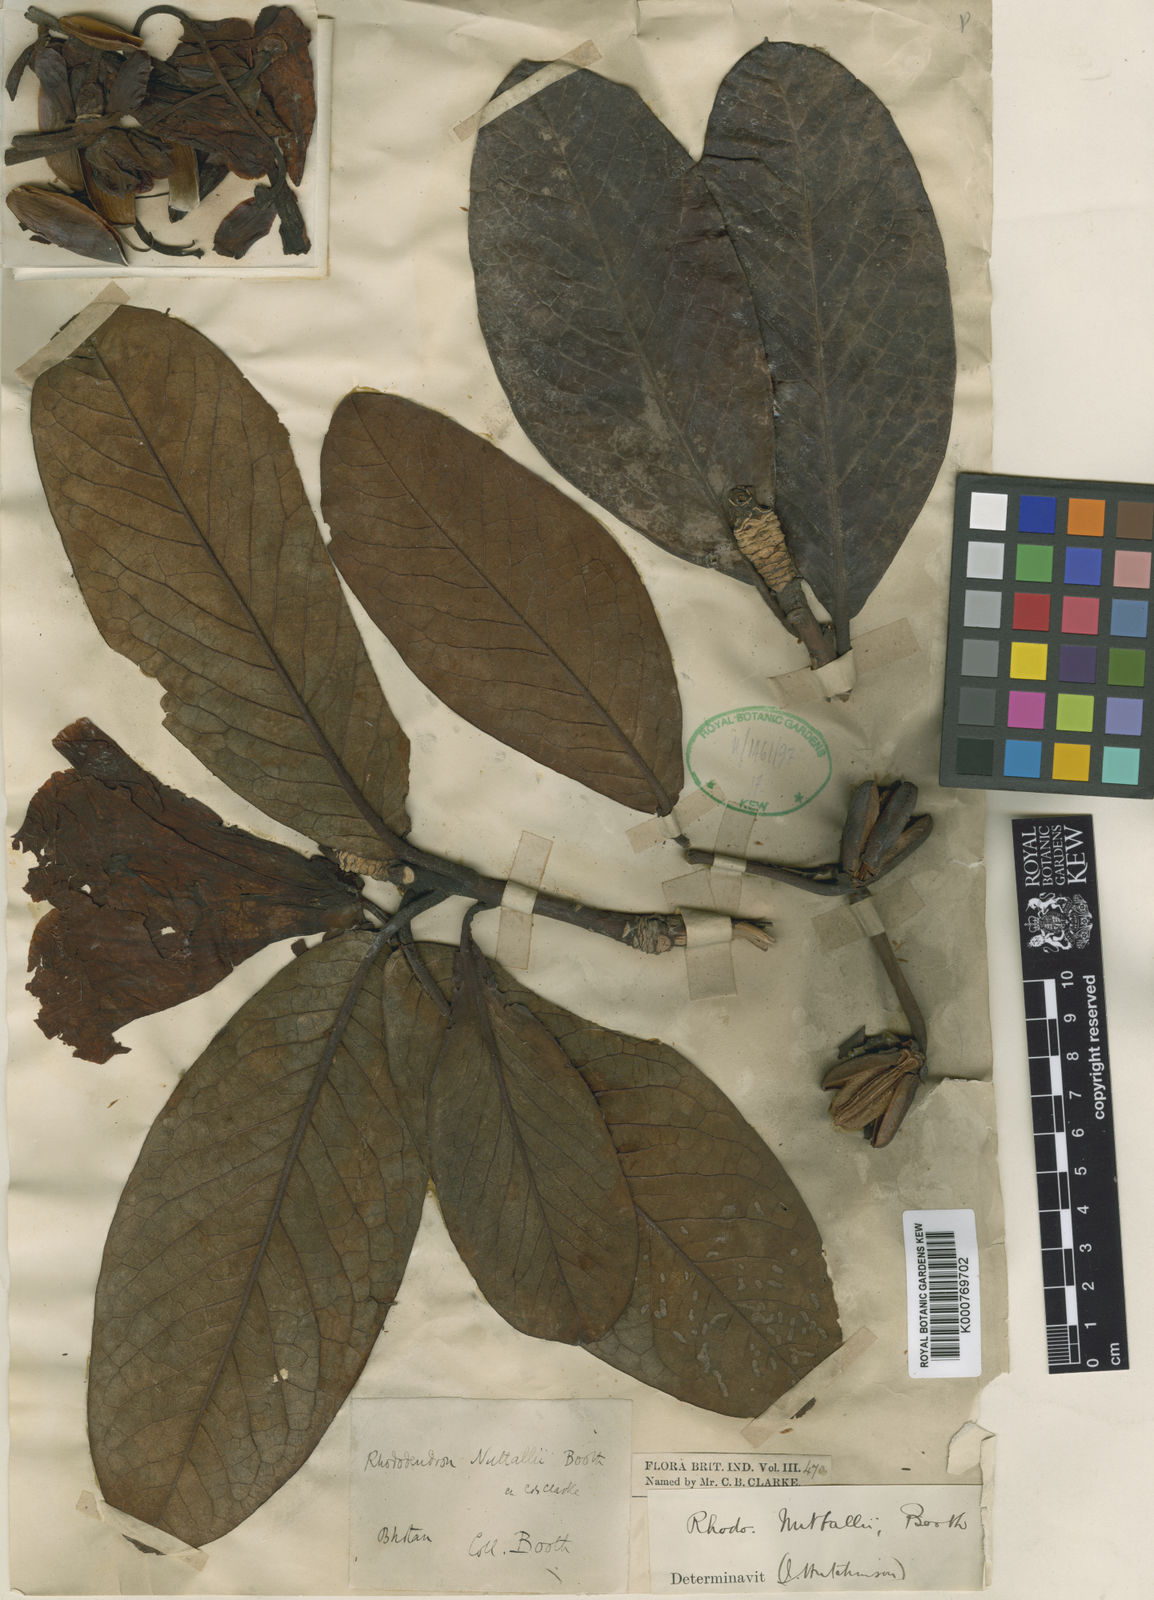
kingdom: Plantae
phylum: Tracheophyta
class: Magnoliopsida
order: Ericales
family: Ericaceae
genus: Rhododendron
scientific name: Rhododendron
